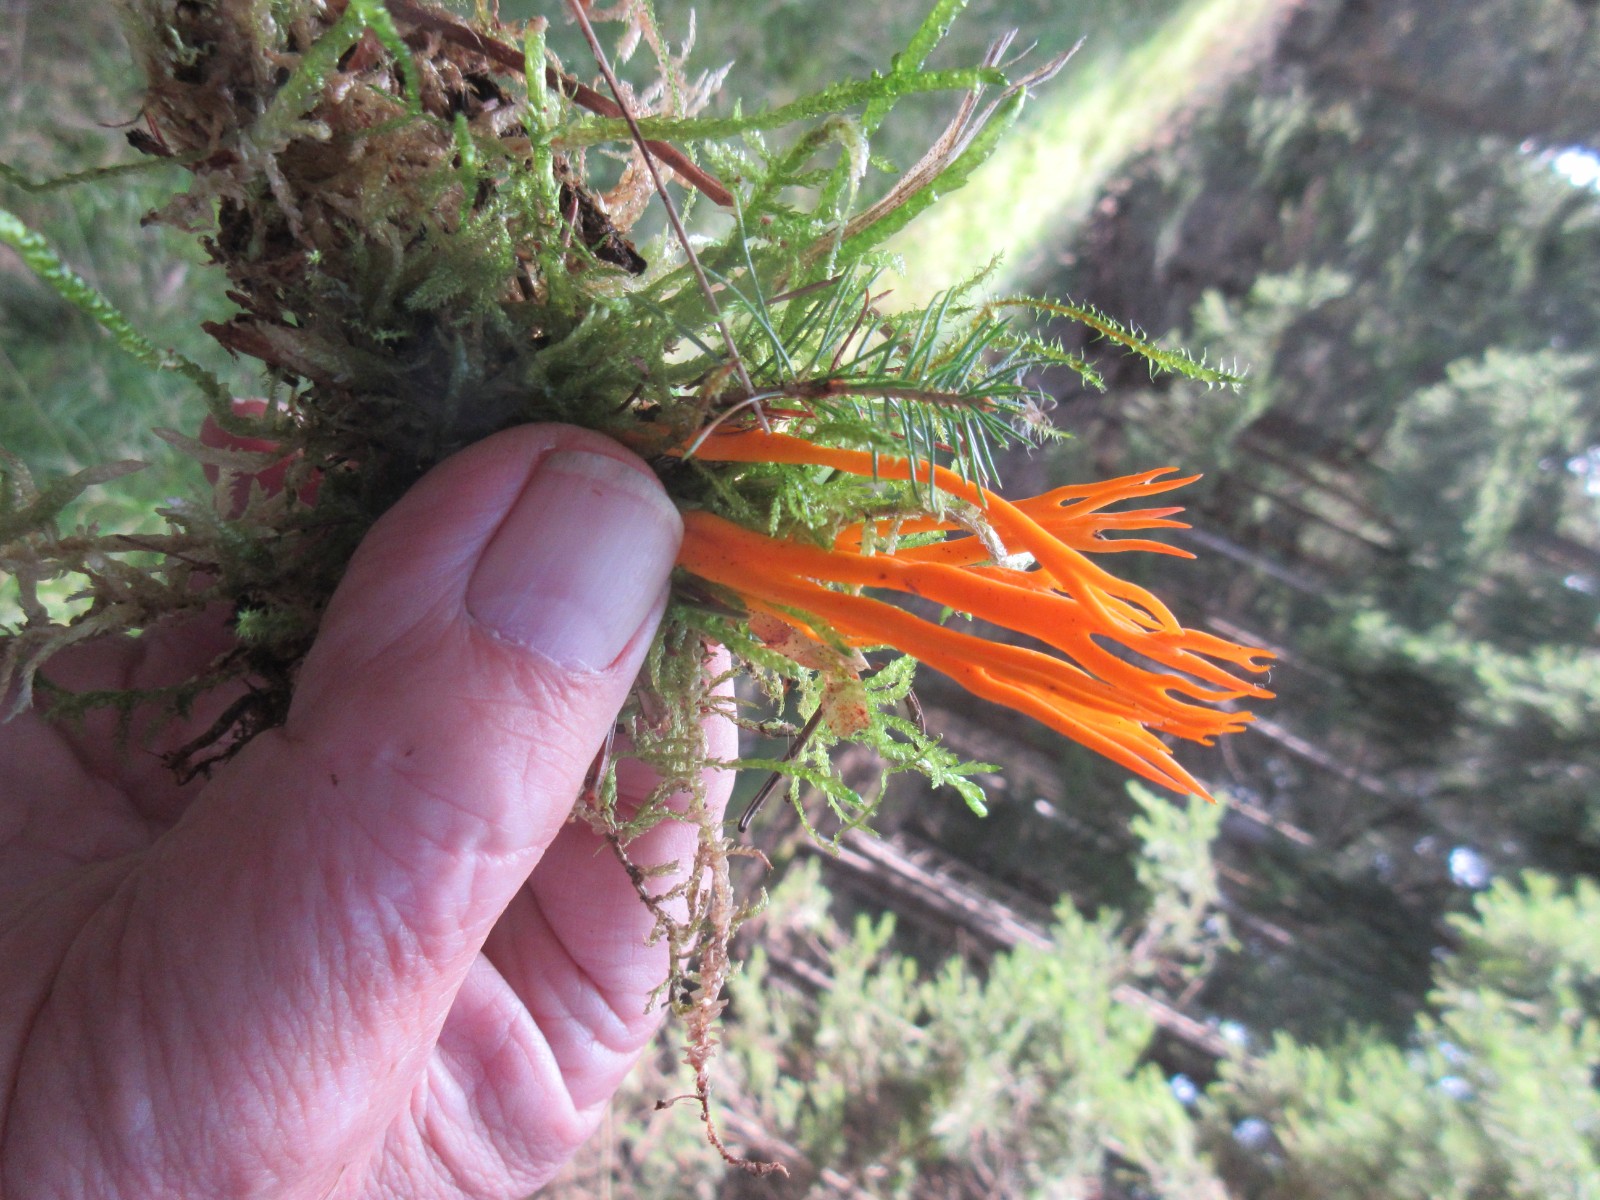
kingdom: Fungi
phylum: Basidiomycota
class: Dacrymycetes
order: Dacrymycetales
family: Dacrymycetaceae
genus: Calocera
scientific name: Calocera viscosa
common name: almindelig guldgaffel
